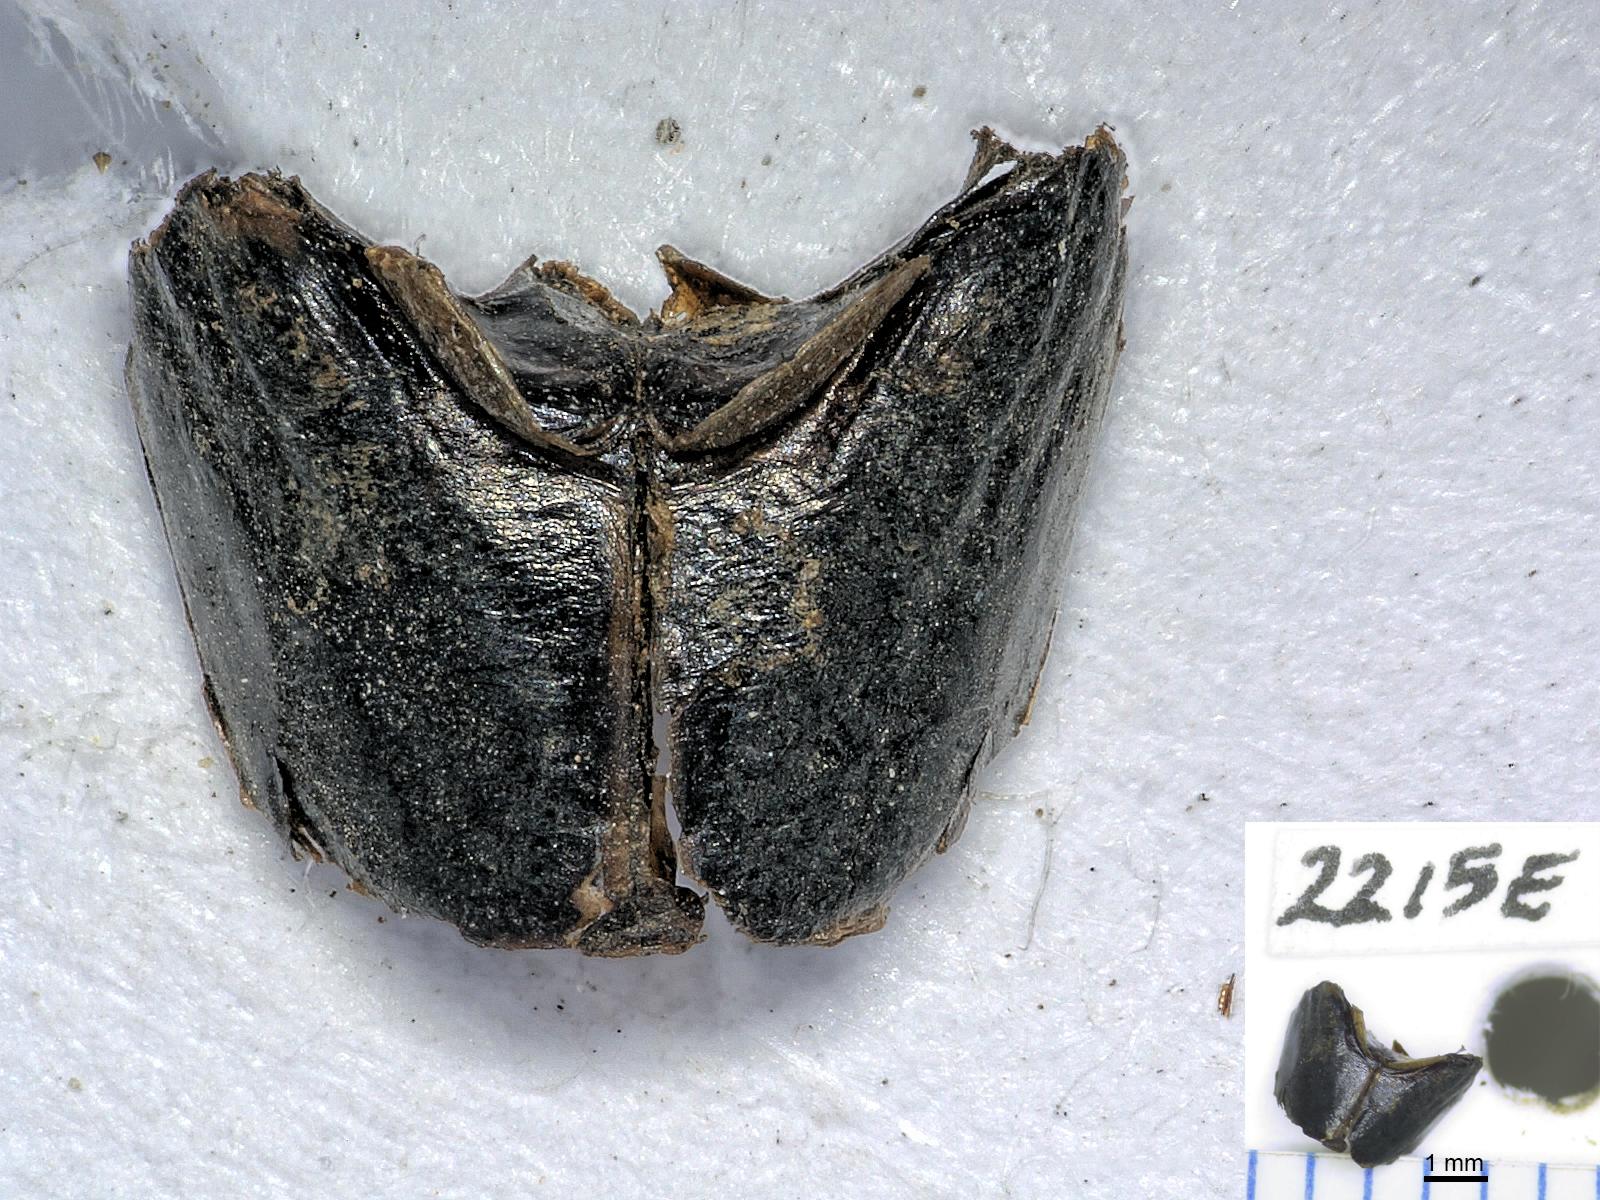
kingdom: Animalia
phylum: Arthropoda
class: Insecta
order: Coleoptera
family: Carabidae
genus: Dicheirus
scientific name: Dicheirus dilatatus
